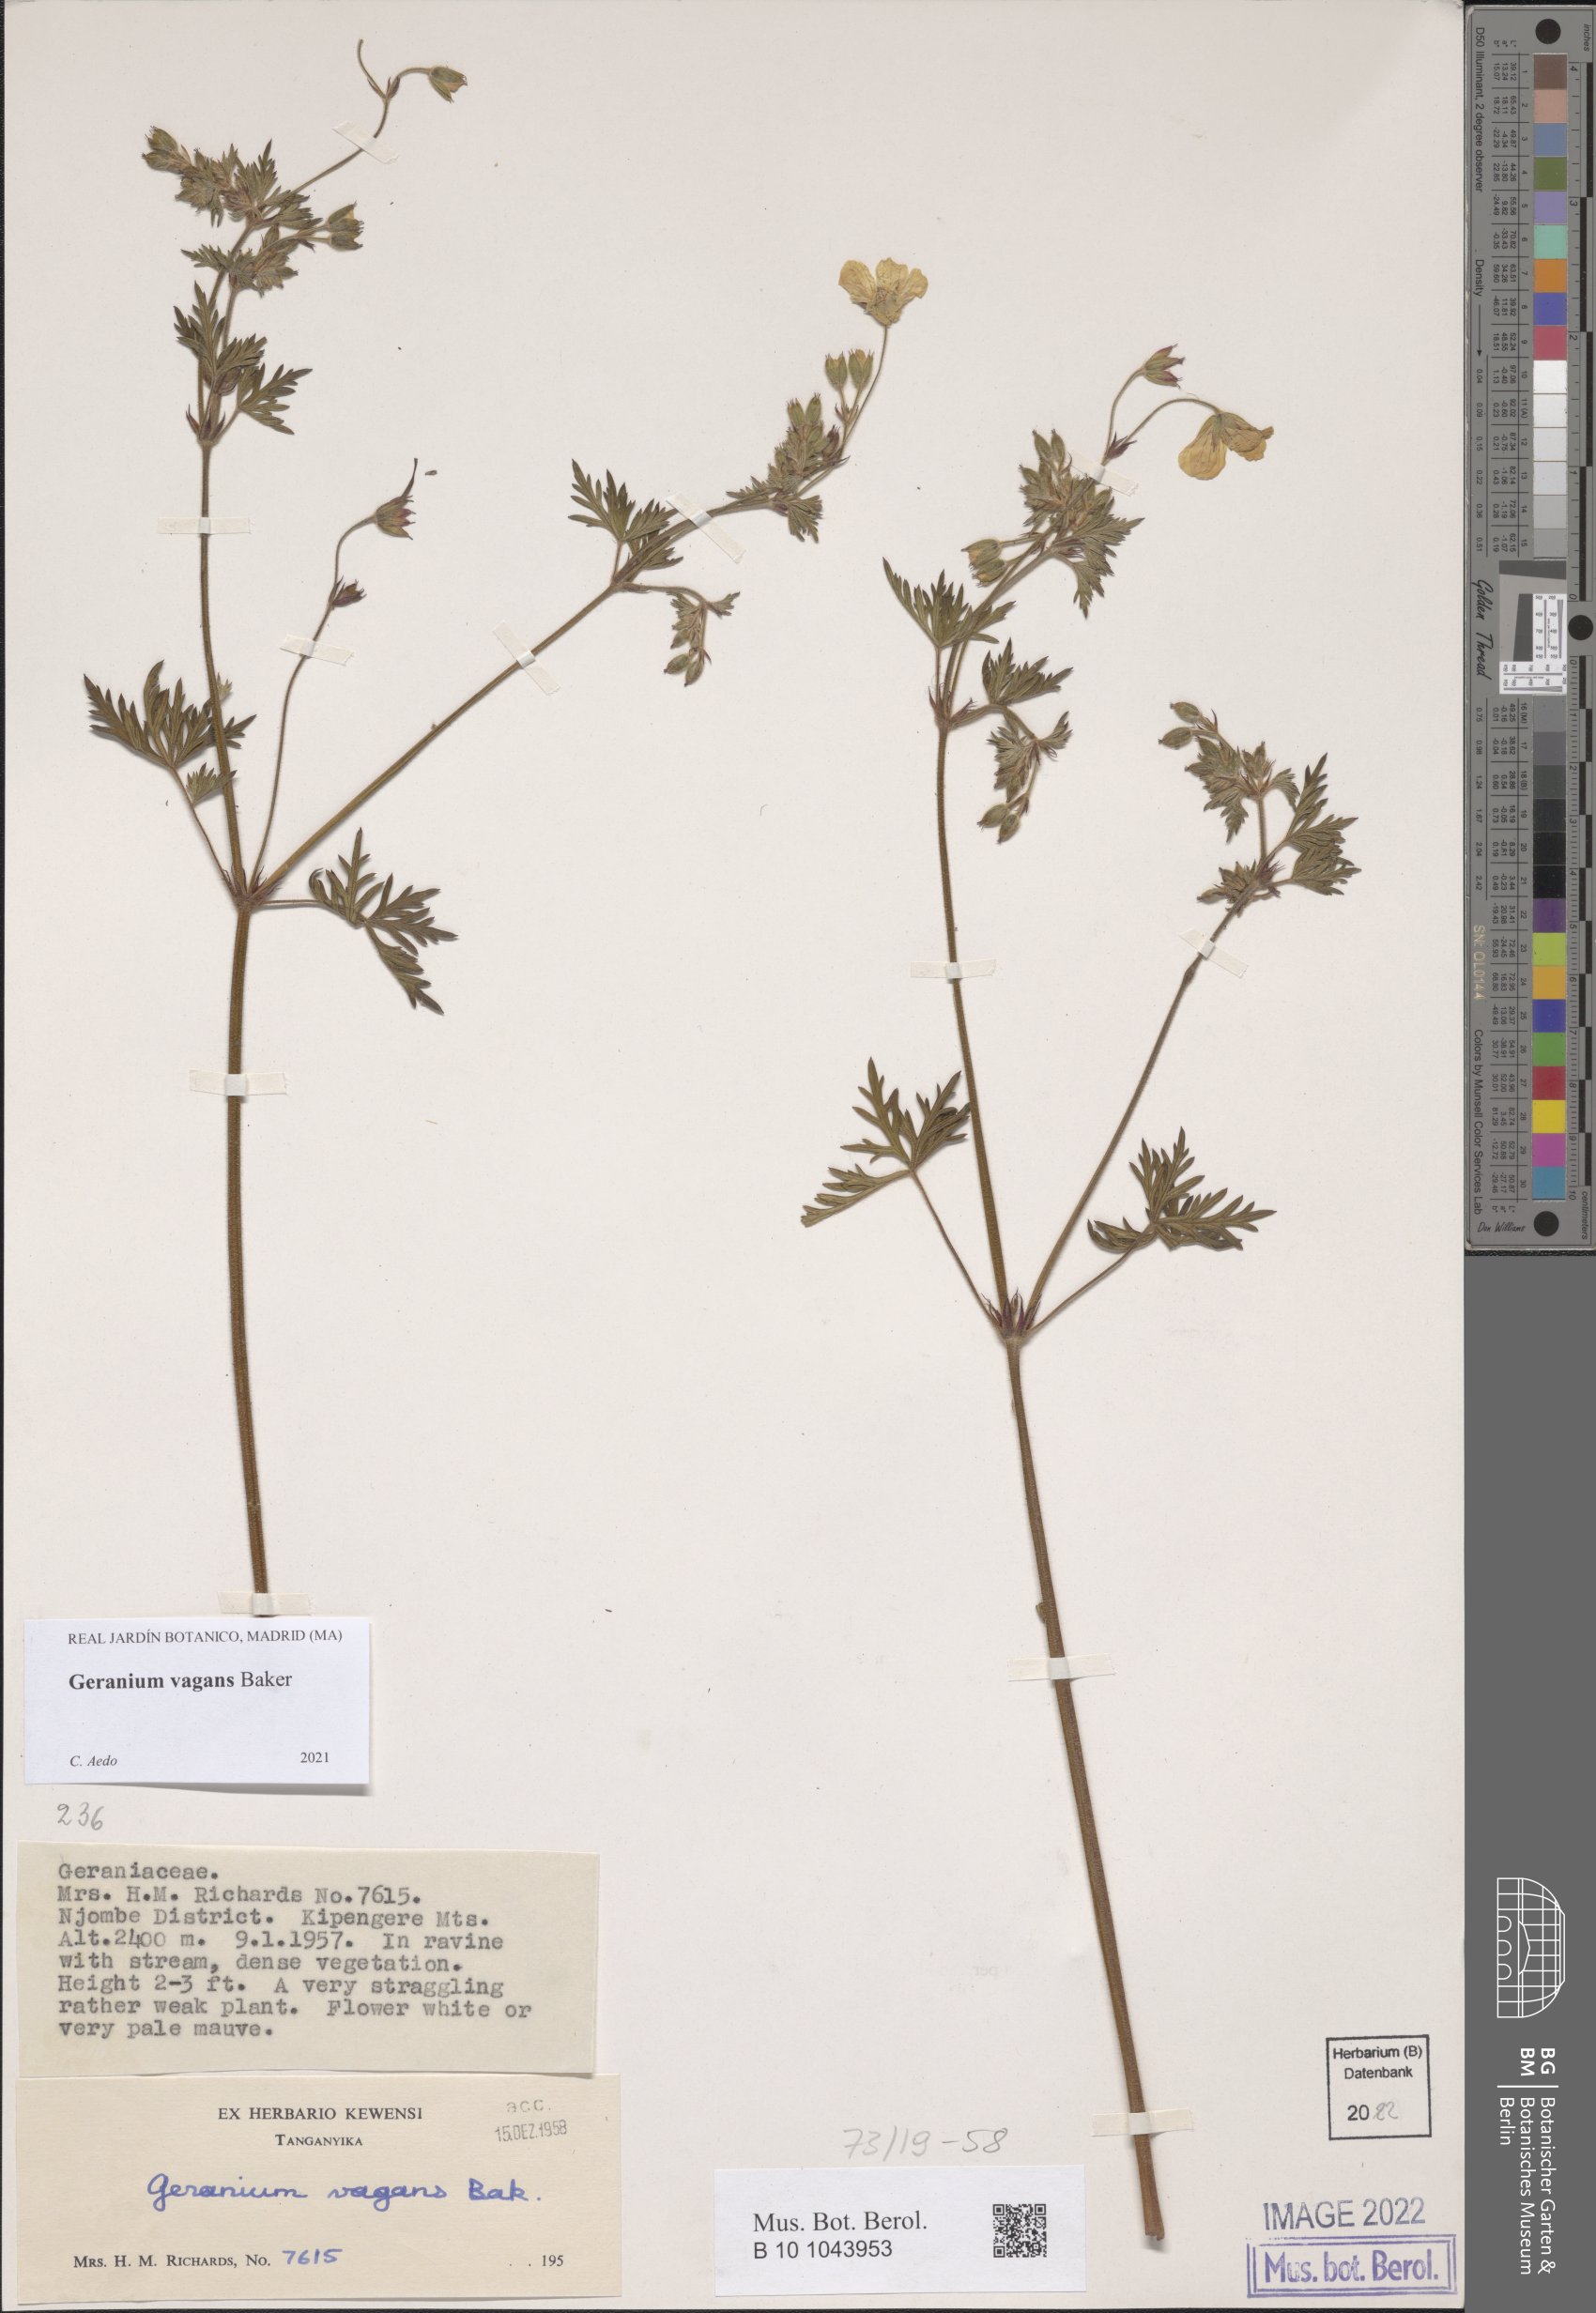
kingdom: Plantae
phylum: Tracheophyta
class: Magnoliopsida
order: Geraniales
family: Geraniaceae
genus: Geranium
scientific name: Geranium vagans
